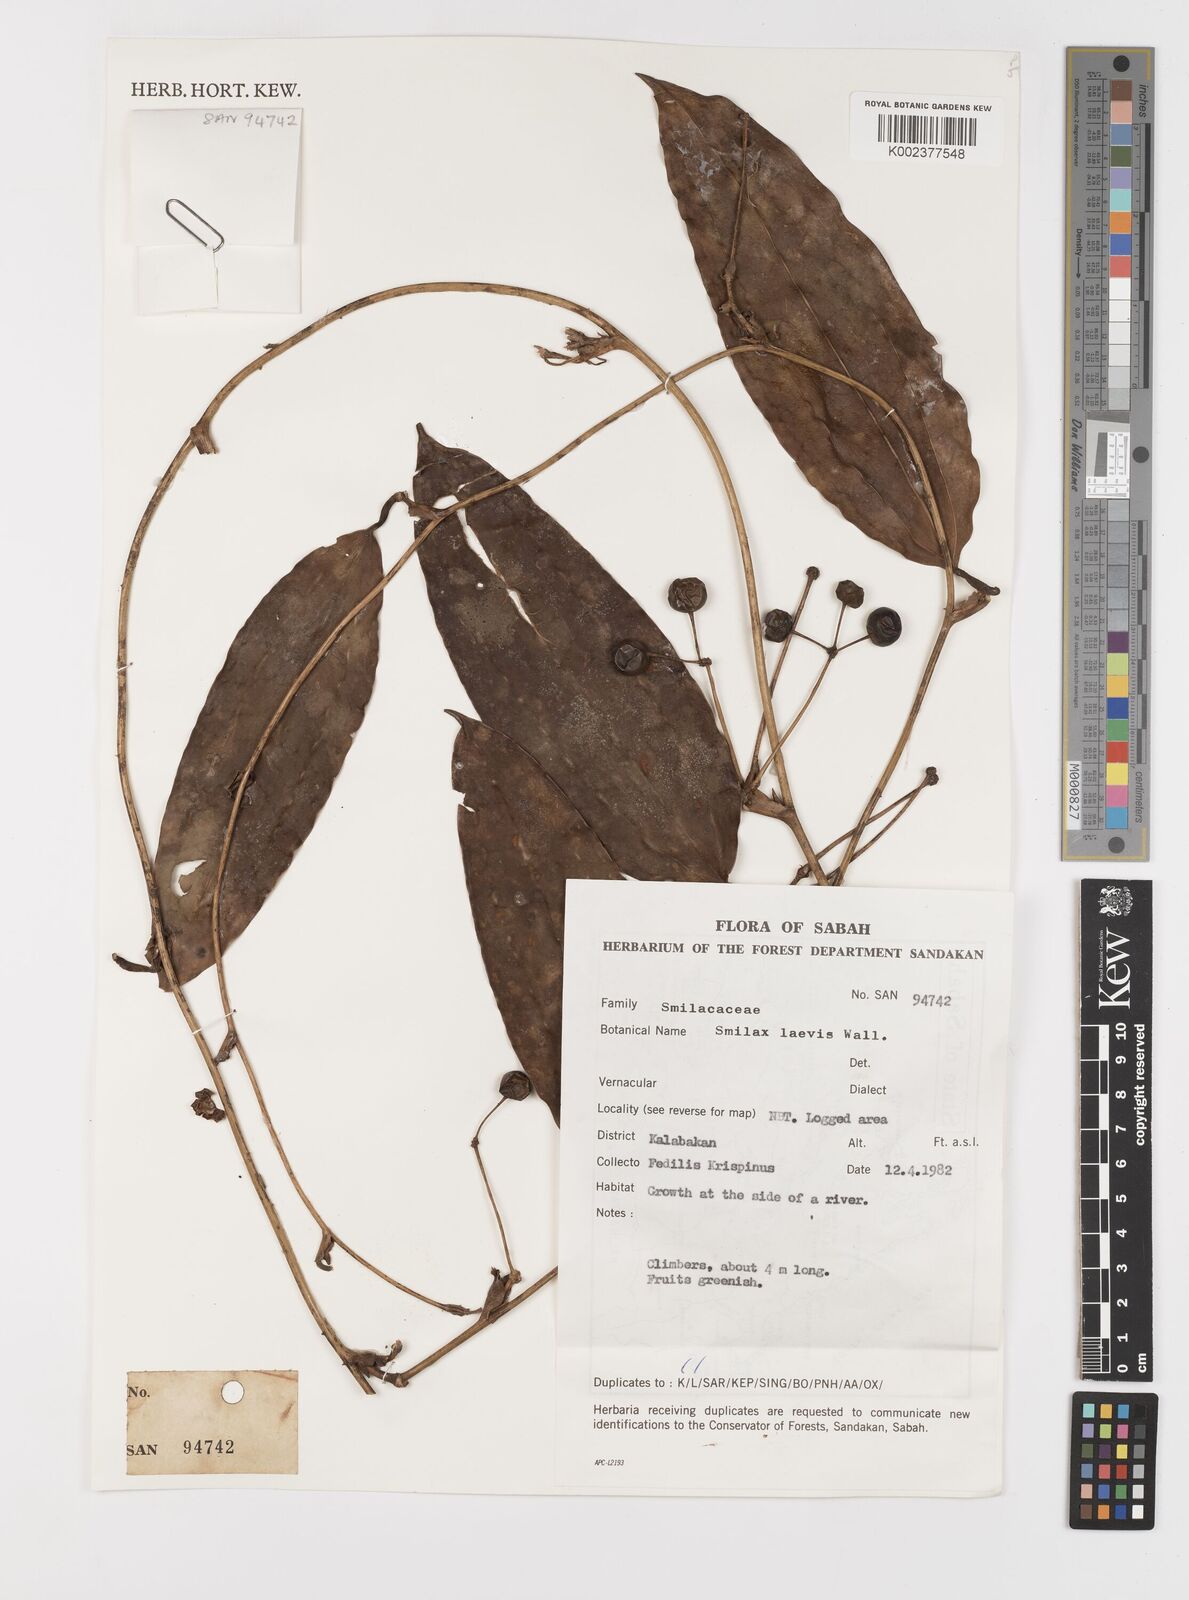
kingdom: Plantae
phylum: Tracheophyta
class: Liliopsida
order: Liliales
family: Smilacaceae
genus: Smilax
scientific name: Smilax laevis
